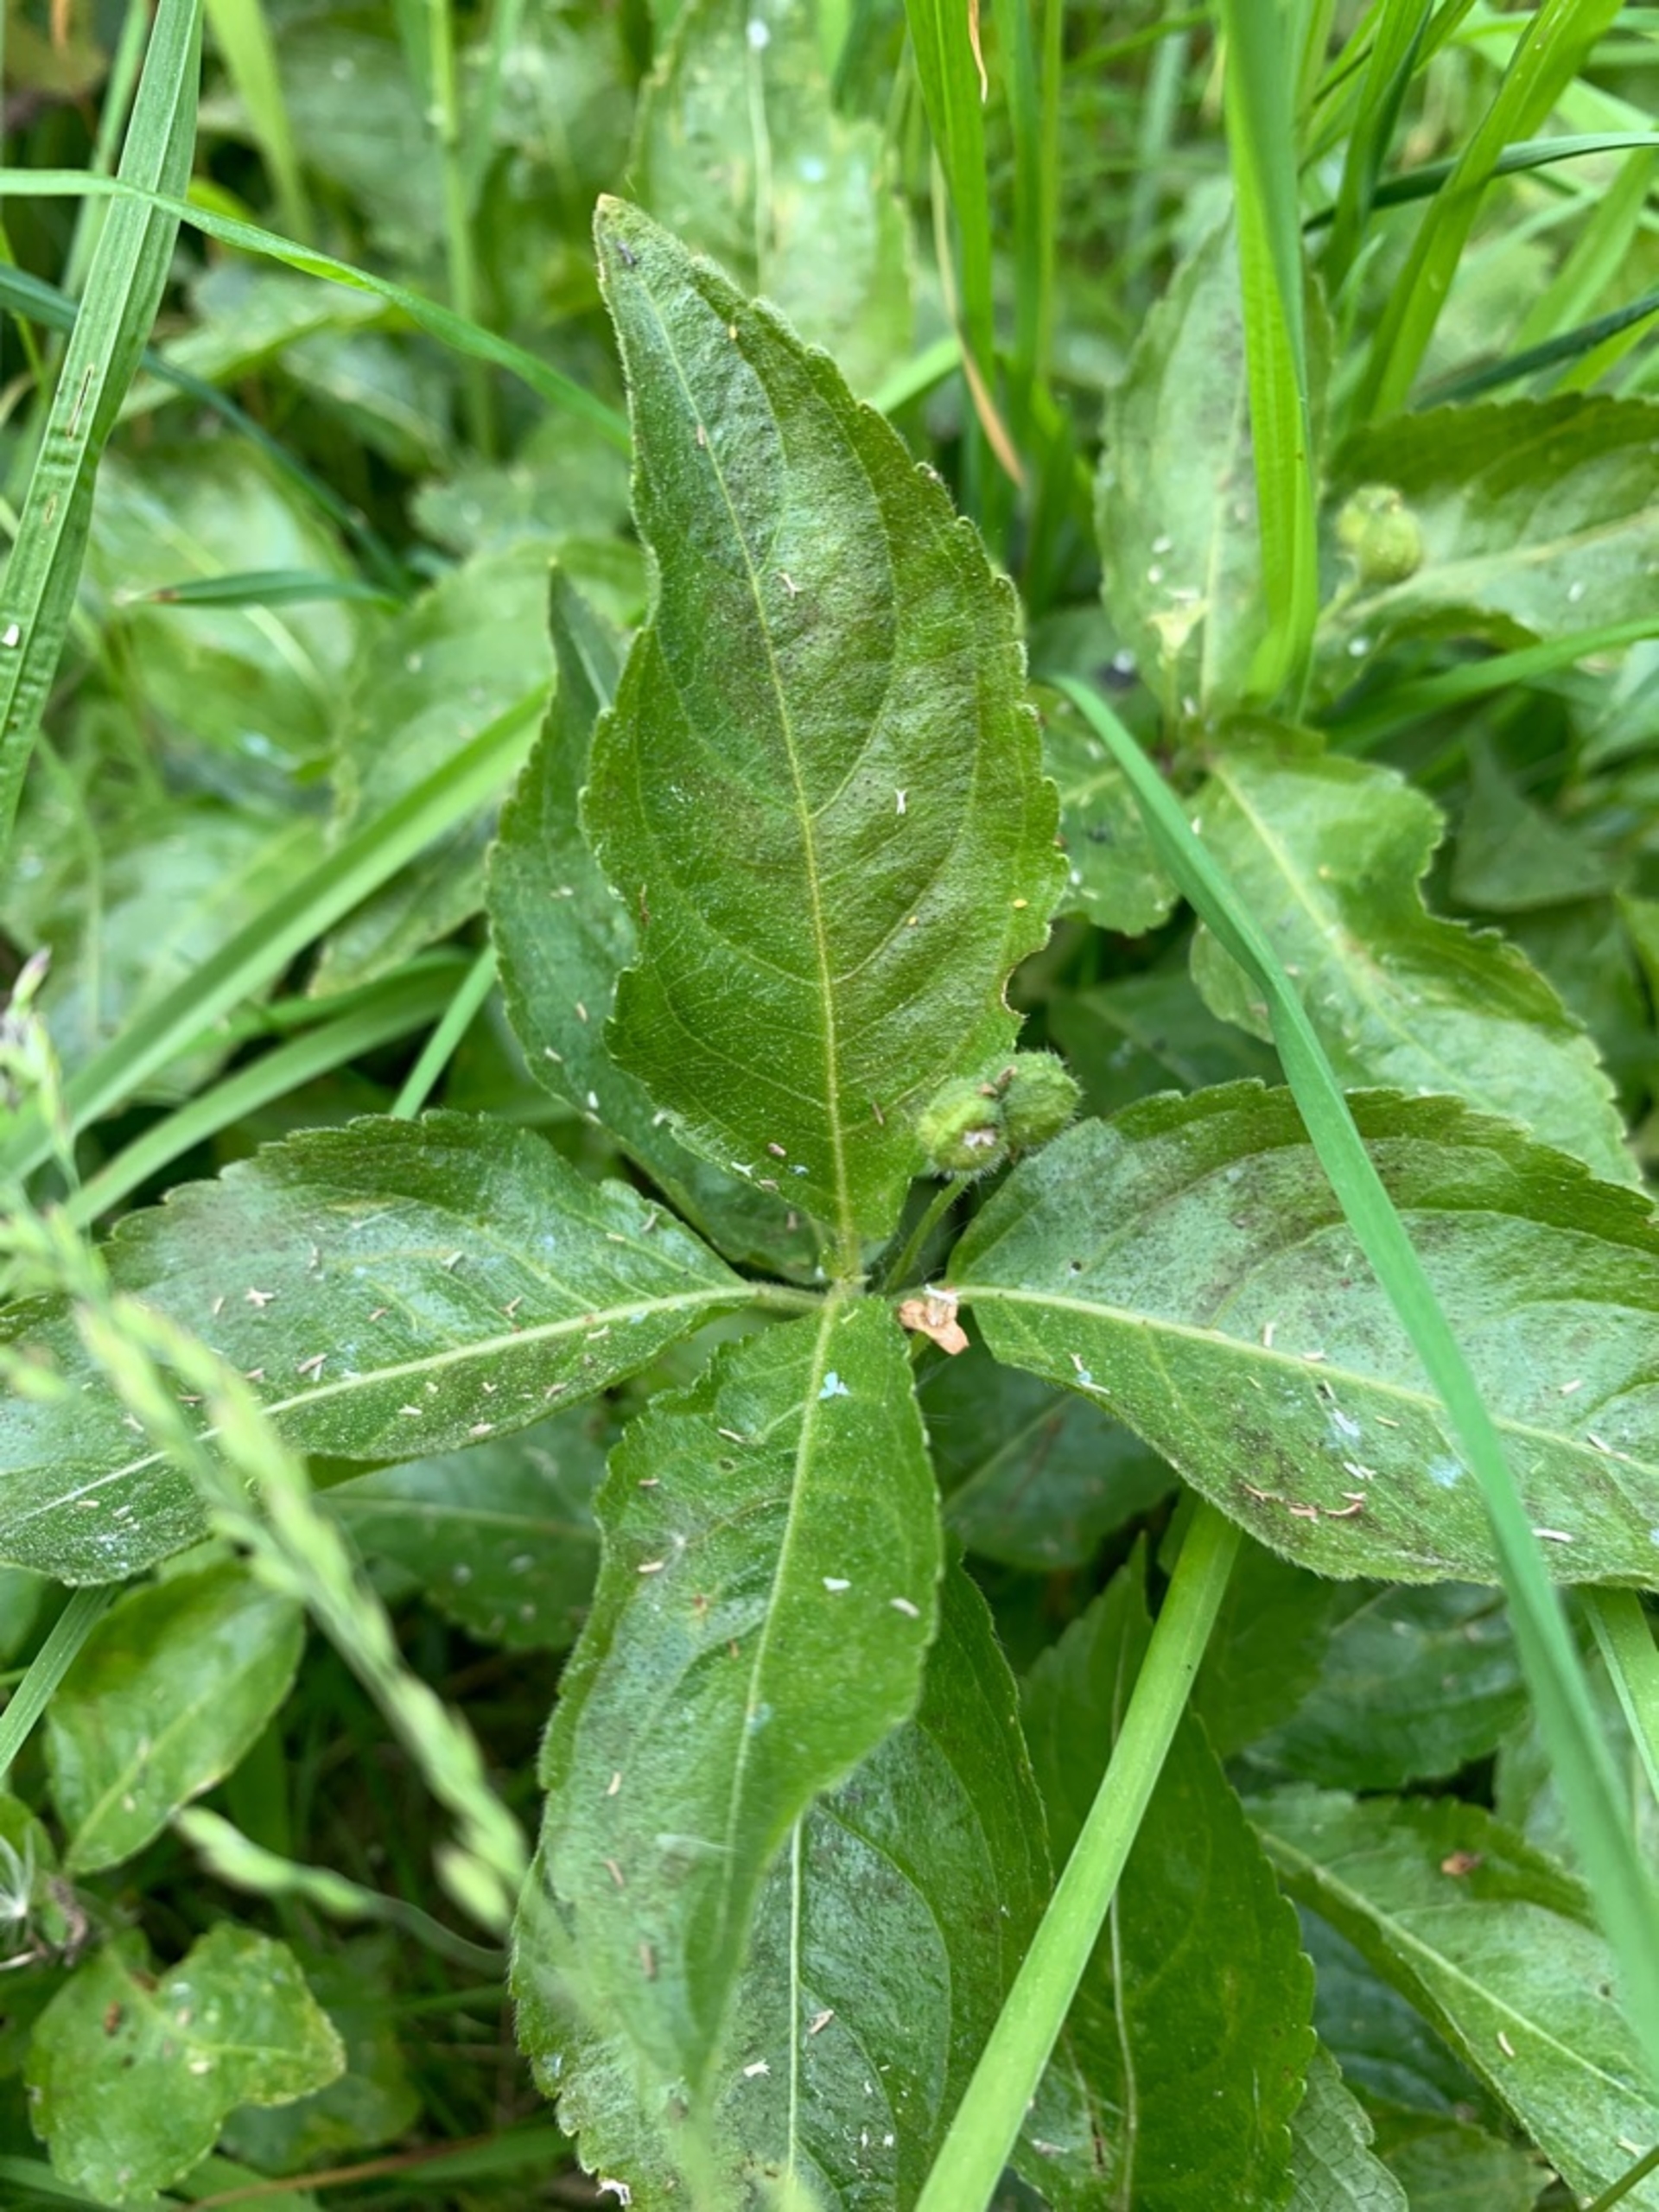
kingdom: Plantae
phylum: Tracheophyta
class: Magnoliopsida
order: Malpighiales
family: Euphorbiaceae
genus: Mercurialis
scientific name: Mercurialis perennis
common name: Almindelig bingelurt
